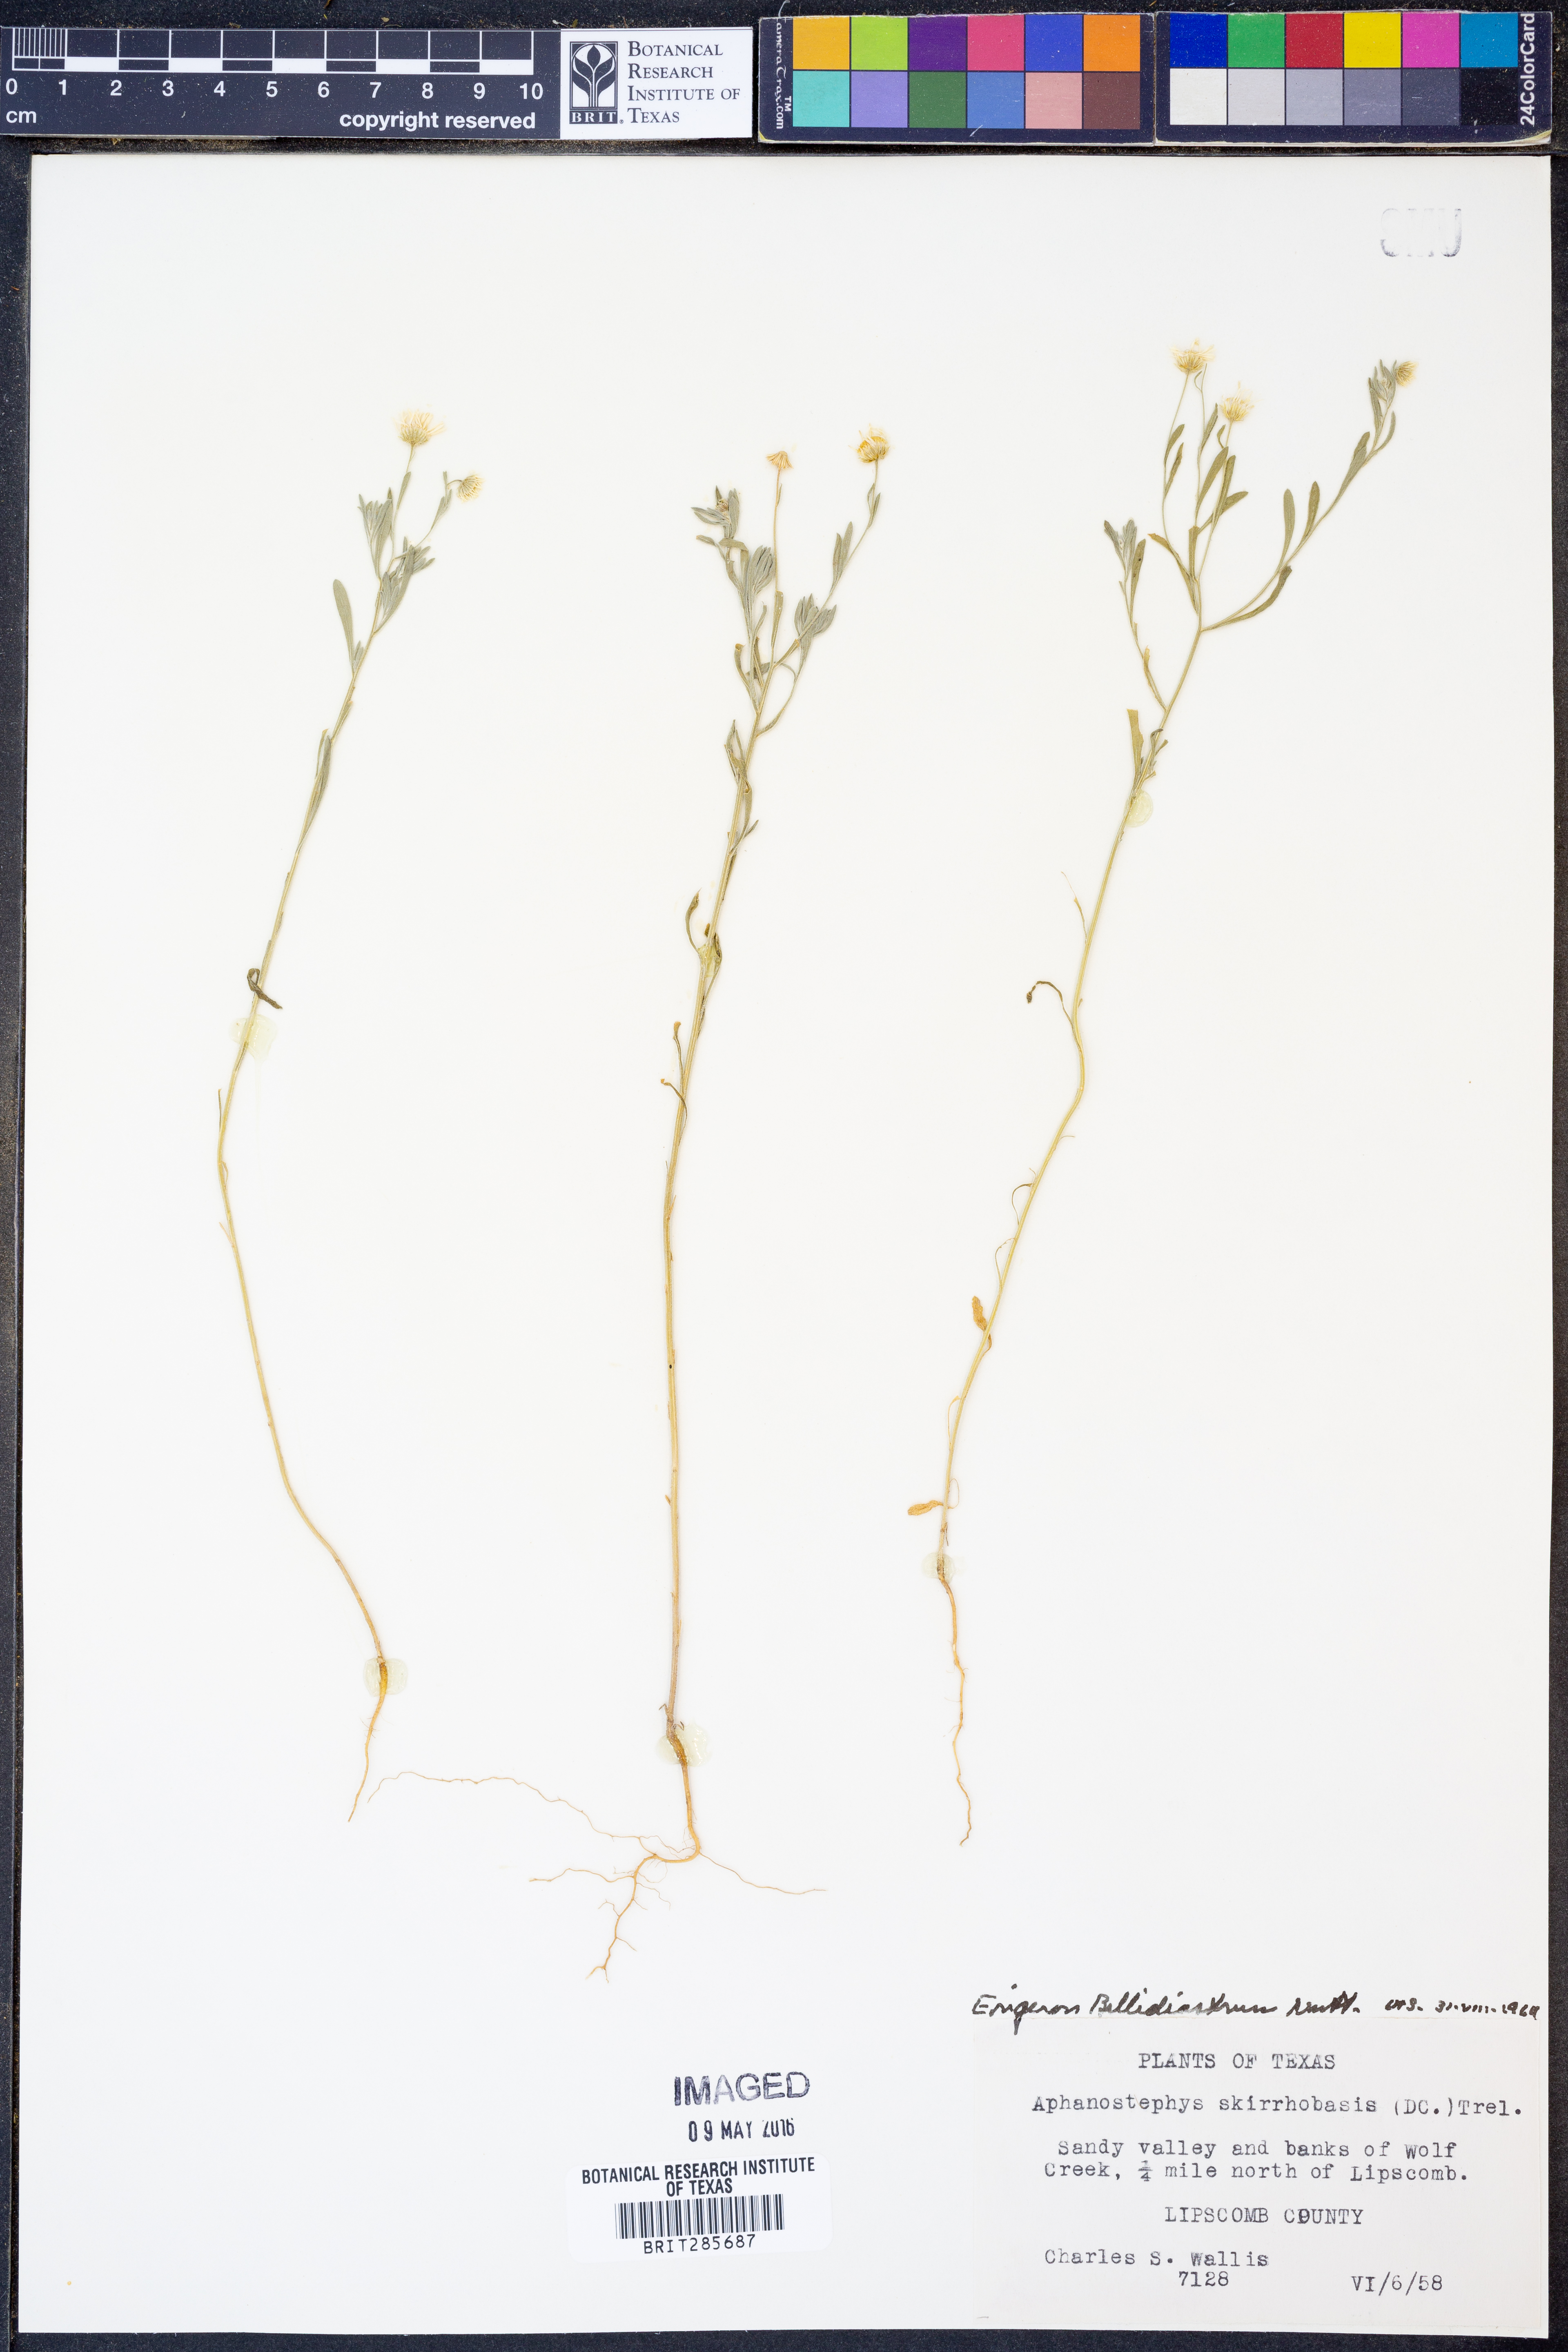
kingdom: Plantae
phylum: Tracheophyta
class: Magnoliopsida
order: Asterales
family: Asteraceae
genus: Erigeron
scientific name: Erigeron bellidiastrum
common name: Sand fleabane
